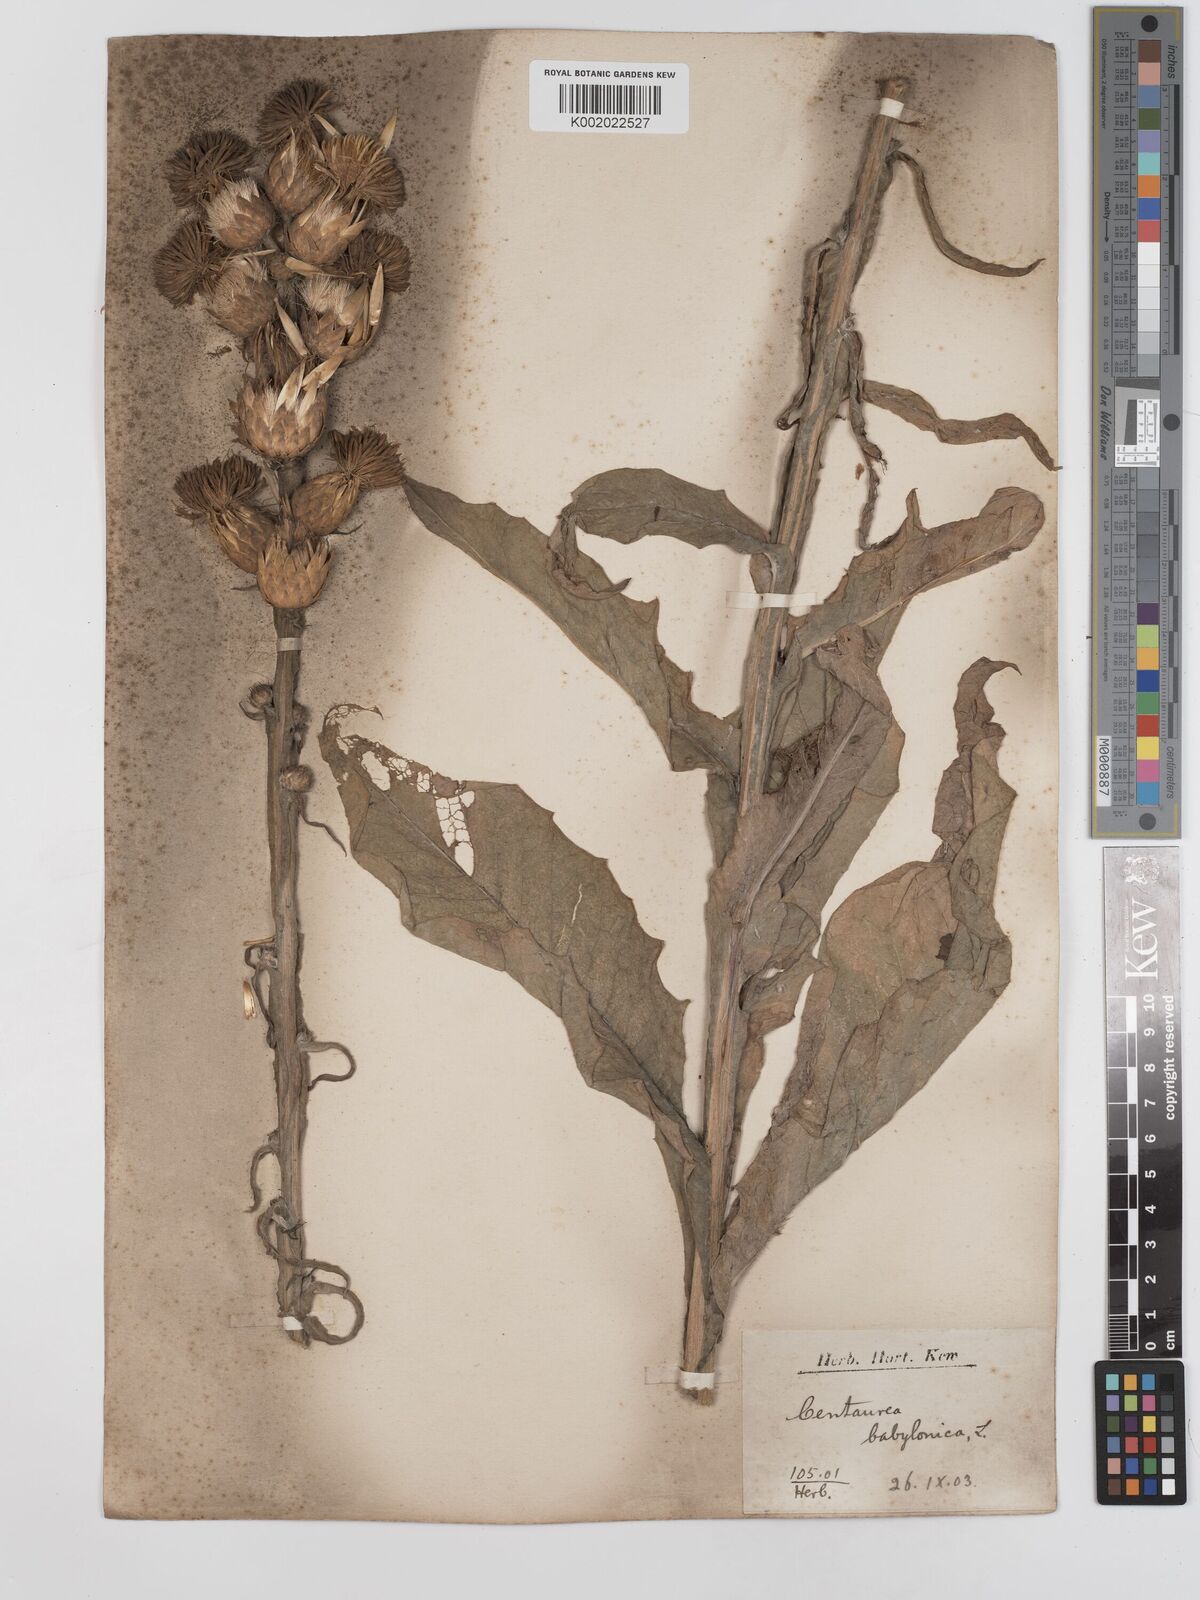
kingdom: Plantae
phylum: Tracheophyta
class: Magnoliopsida
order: Asterales
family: Asteraceae
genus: Centaurea
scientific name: Centaurea babylonica
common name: Syrian knapweed
